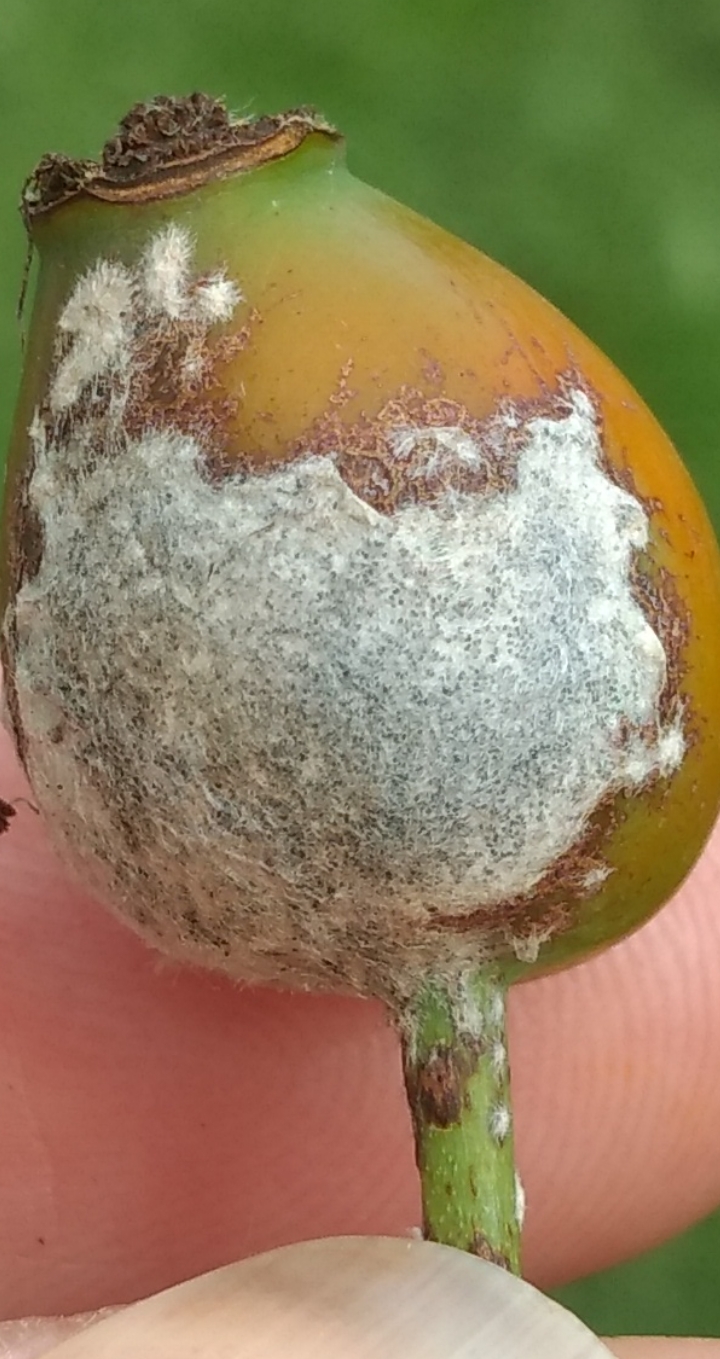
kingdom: Fungi
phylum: Ascomycota
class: Leotiomycetes
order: Helotiales
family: Erysiphaceae
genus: Podosphaera
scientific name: Podosphaera pannosa
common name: Rose mildew
